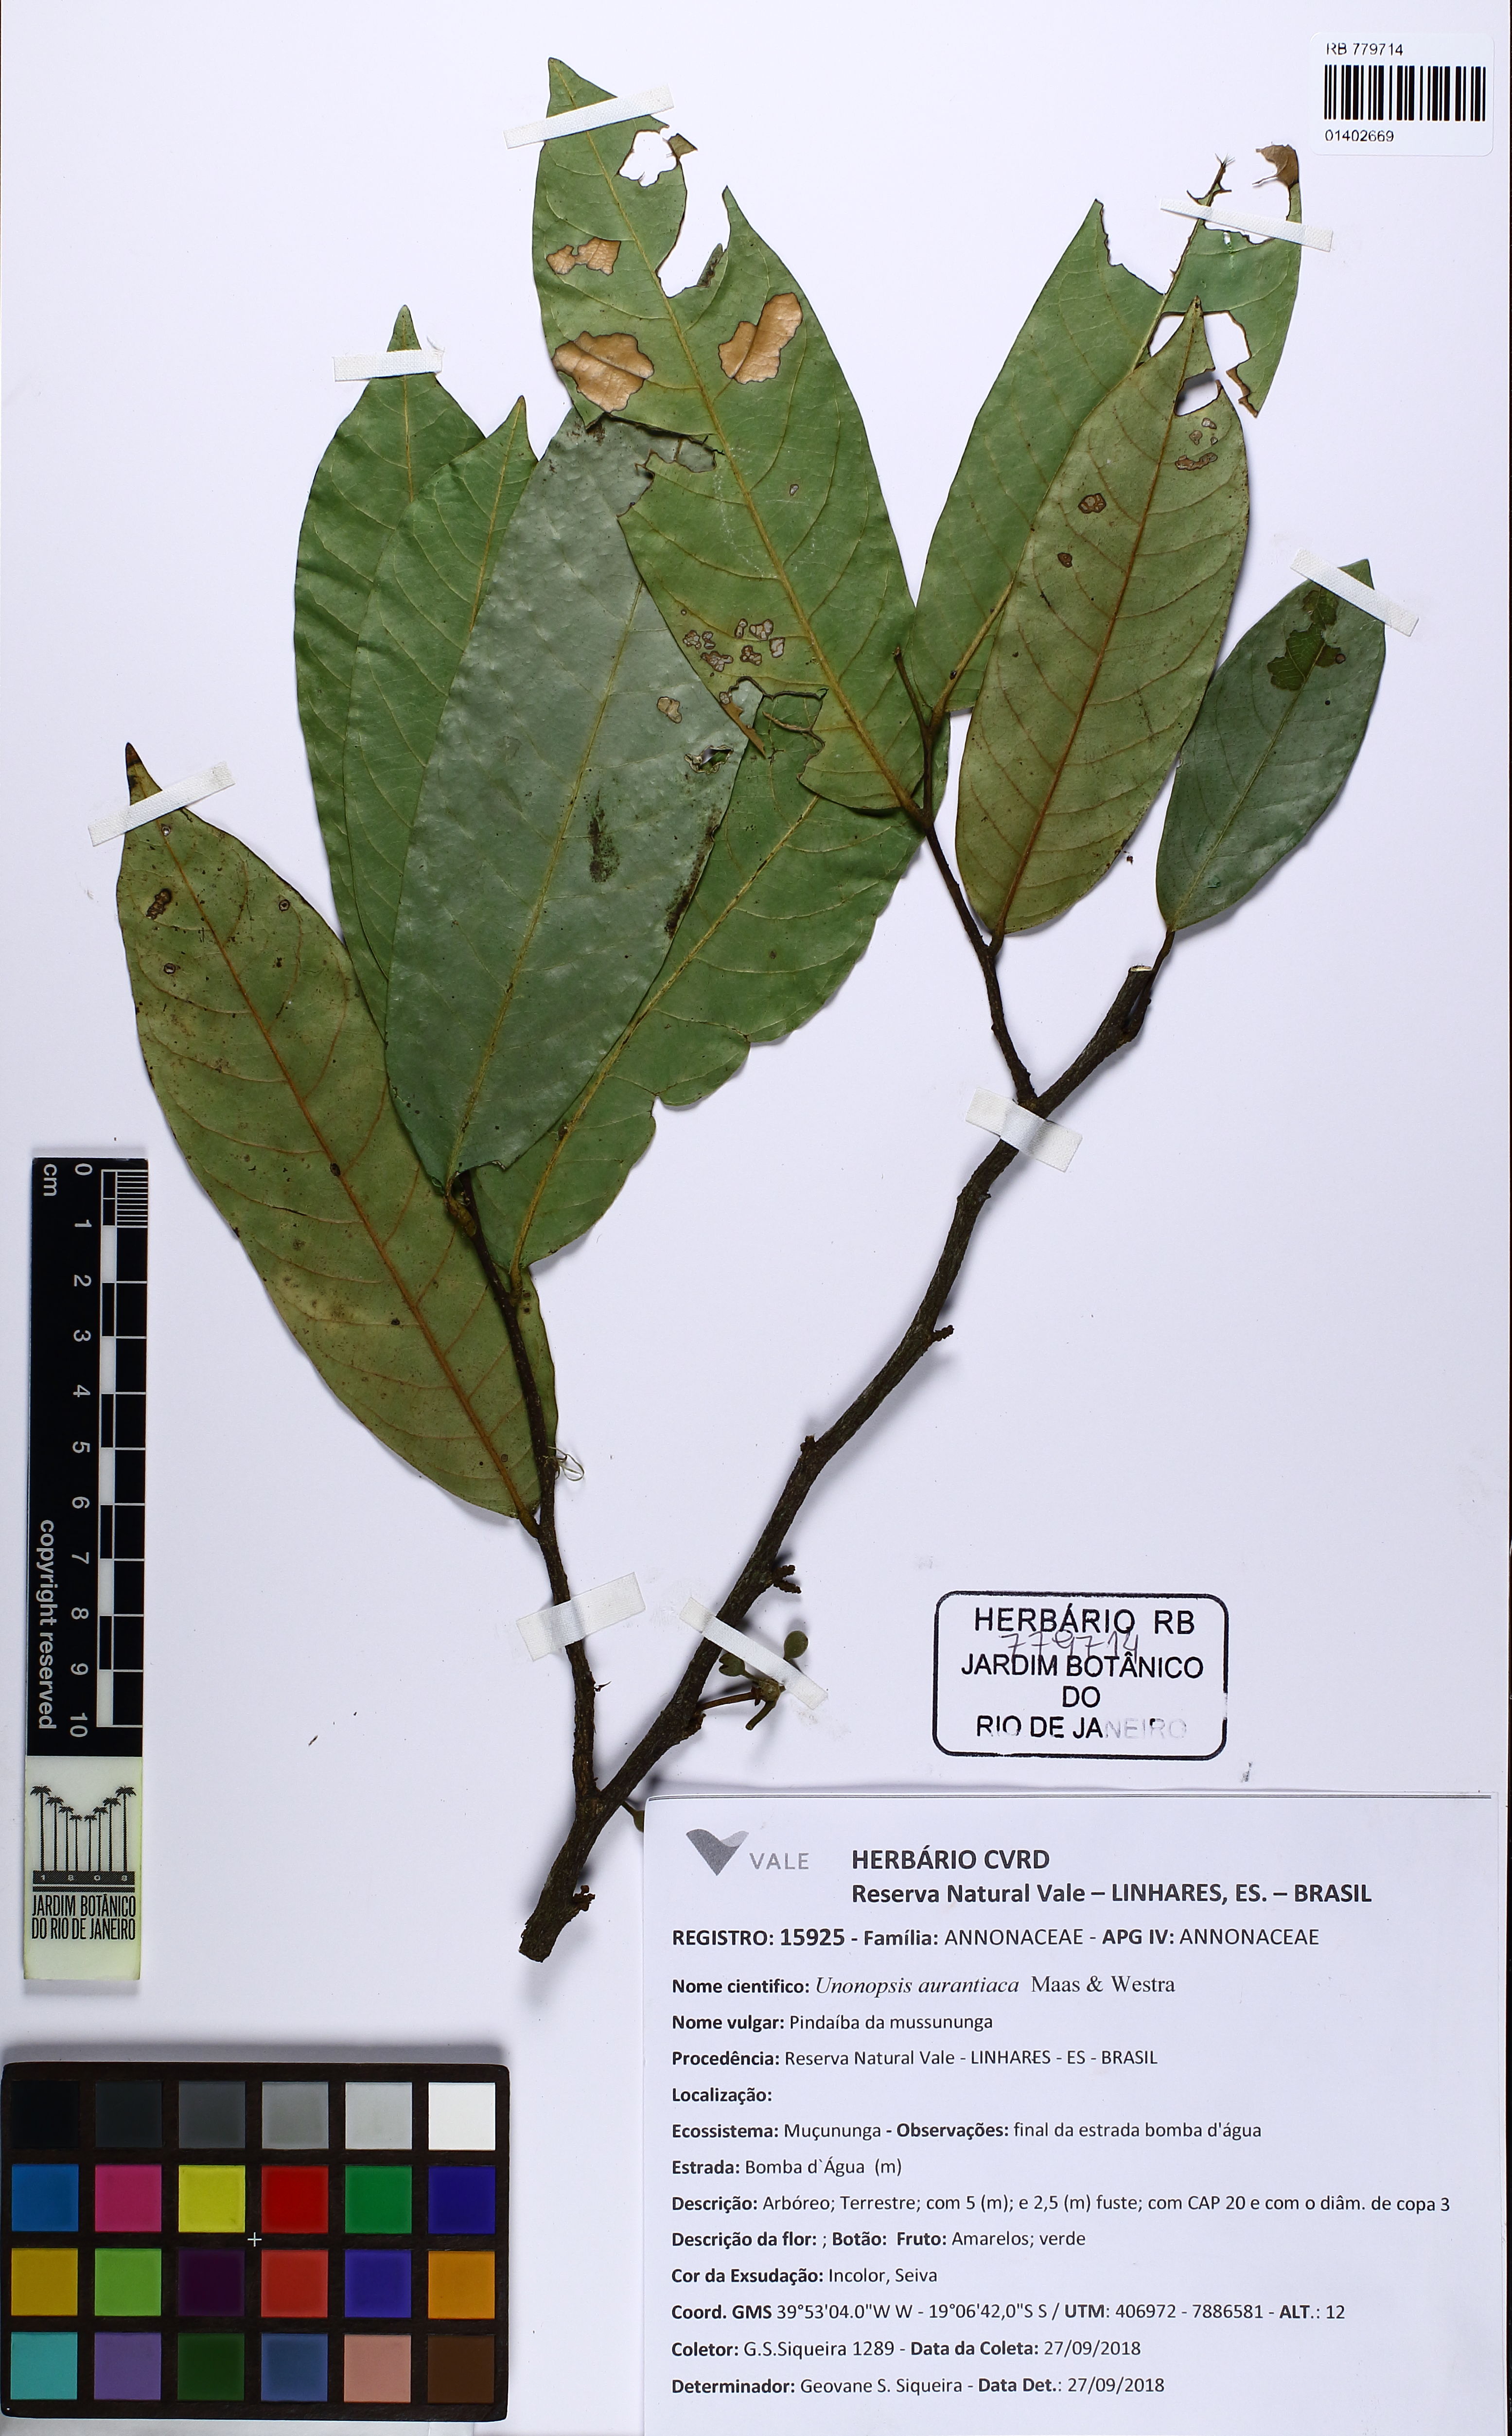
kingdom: Plantae
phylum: Tracheophyta
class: Magnoliopsida
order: Magnoliales
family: Annonaceae
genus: Unonopsis
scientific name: Unonopsis aurantiaca
